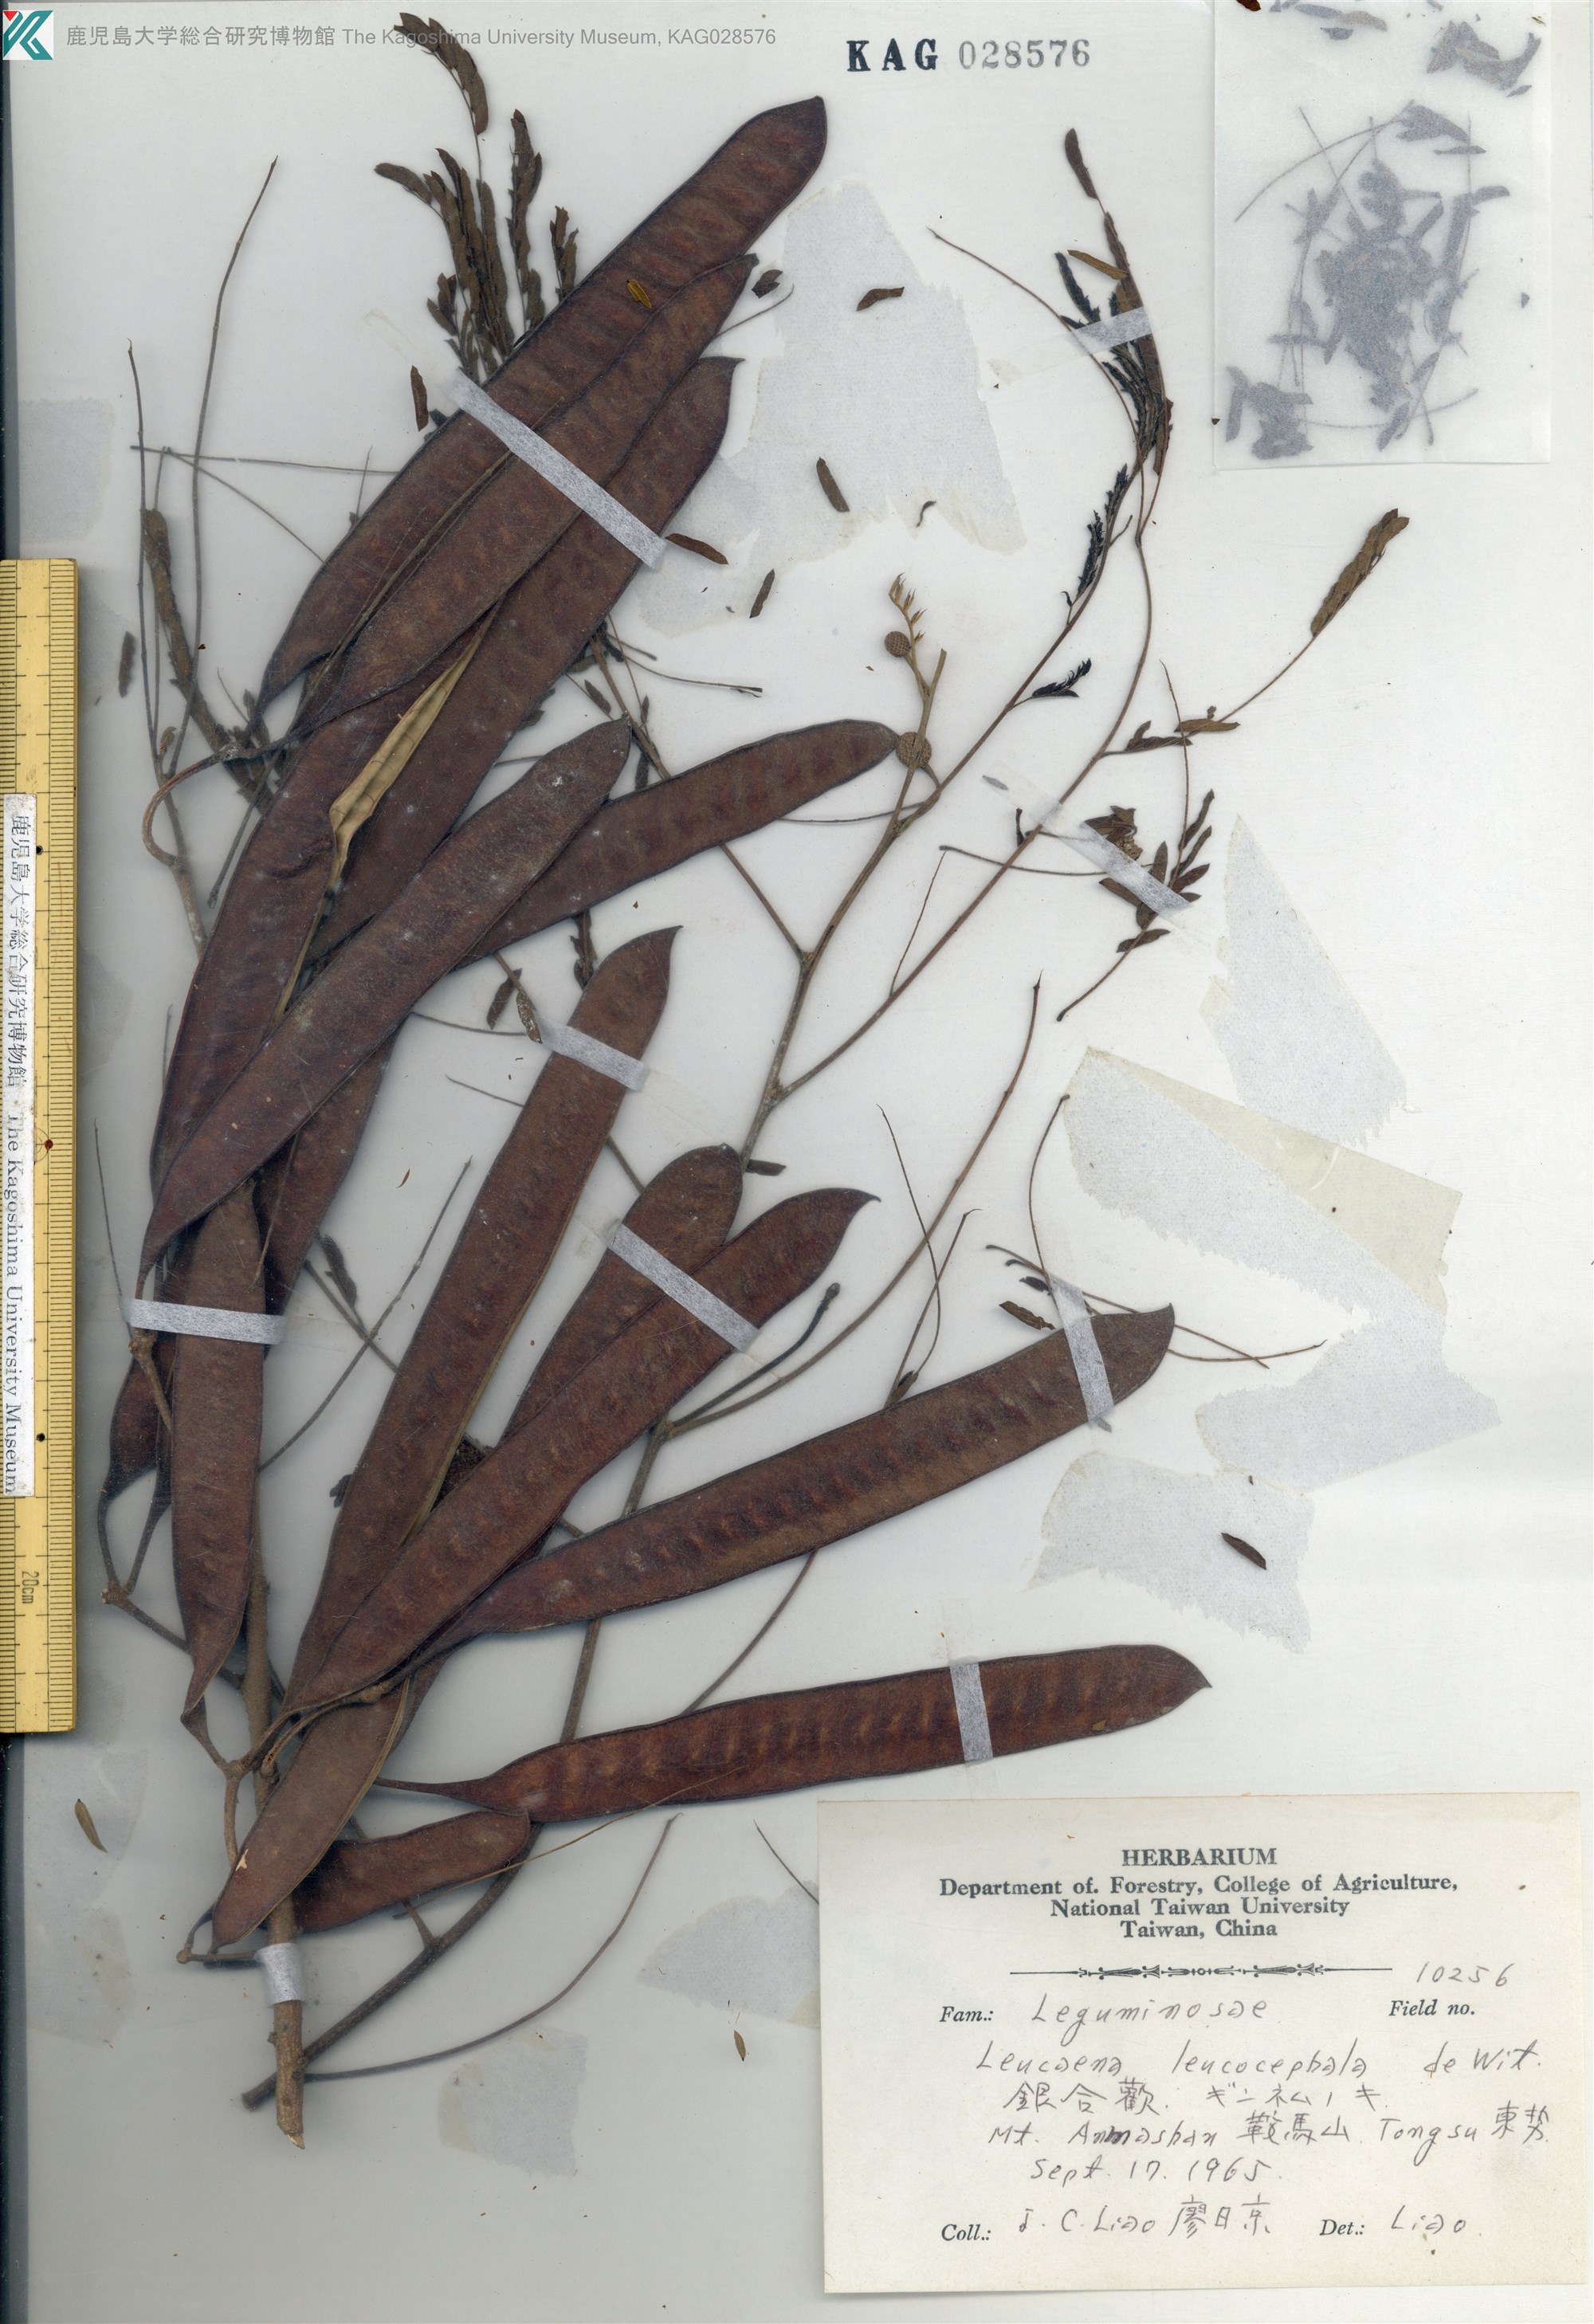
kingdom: Plantae
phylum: Tracheophyta
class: Magnoliopsida
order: Fabales
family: Fabaceae
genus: Leucaena
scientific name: Leucaena leucocephala
